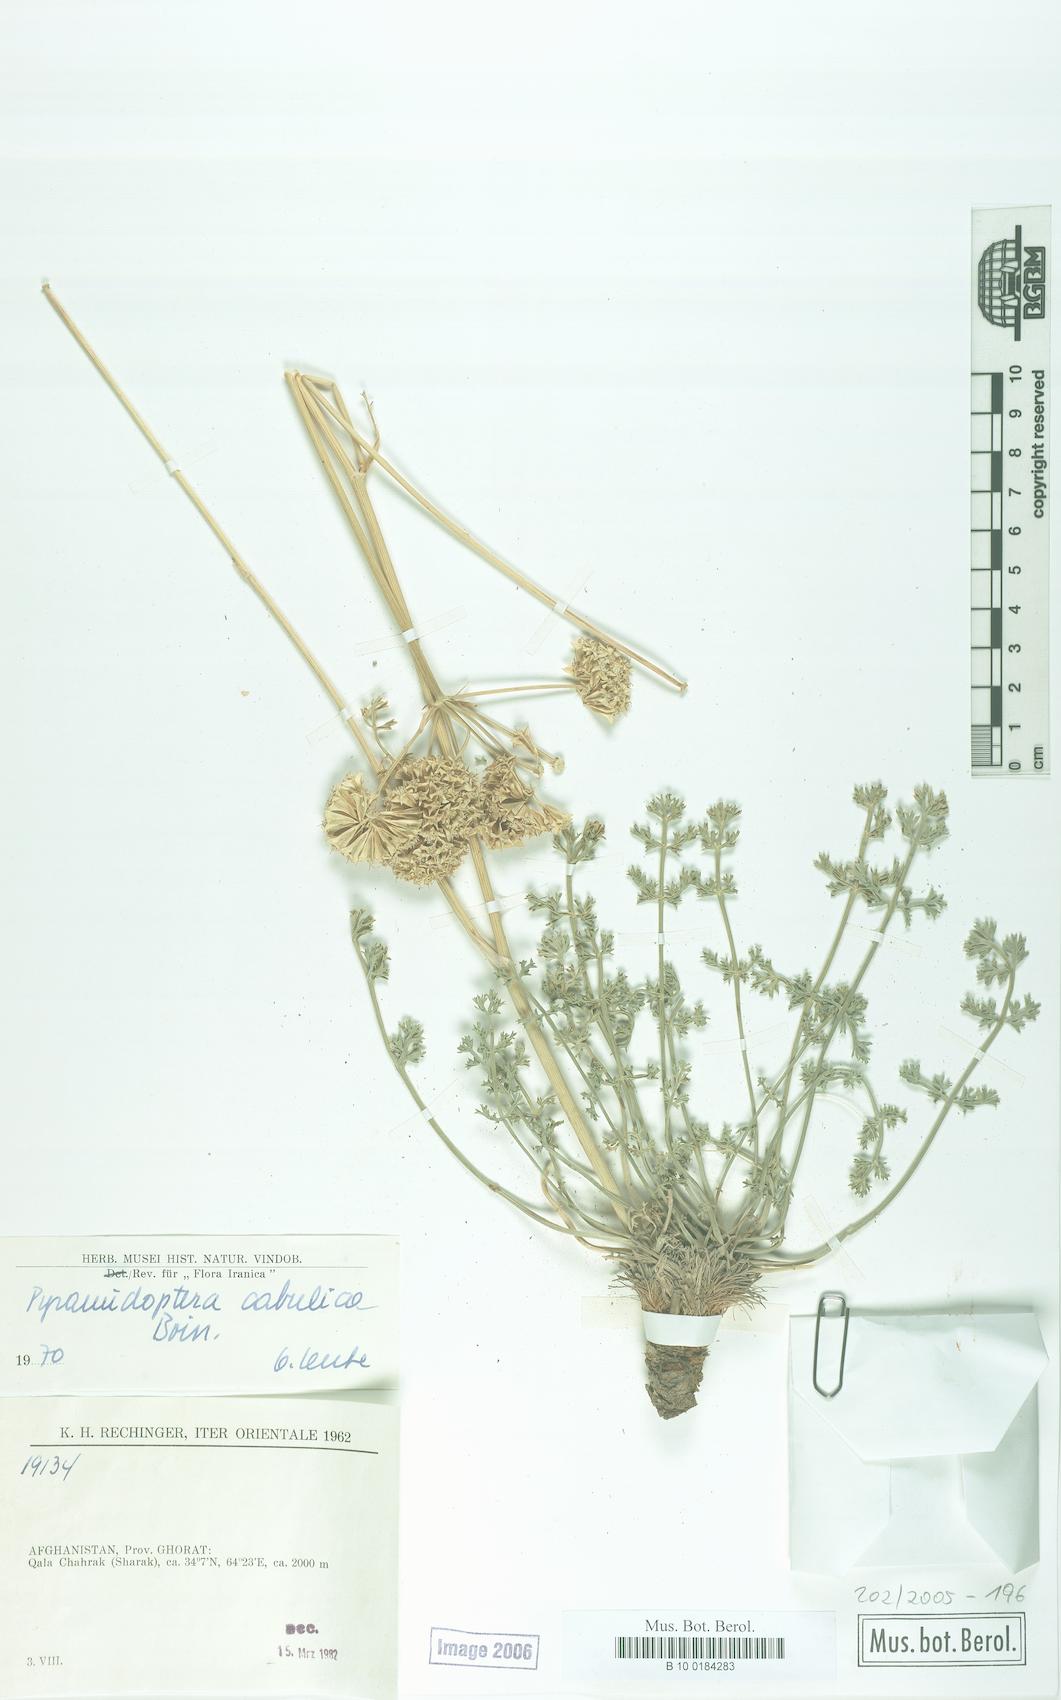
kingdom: Plantae
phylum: Tracheophyta
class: Magnoliopsida
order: Apiales
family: Apiaceae
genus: Pyramidoptera
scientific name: Pyramidoptera cabulica
